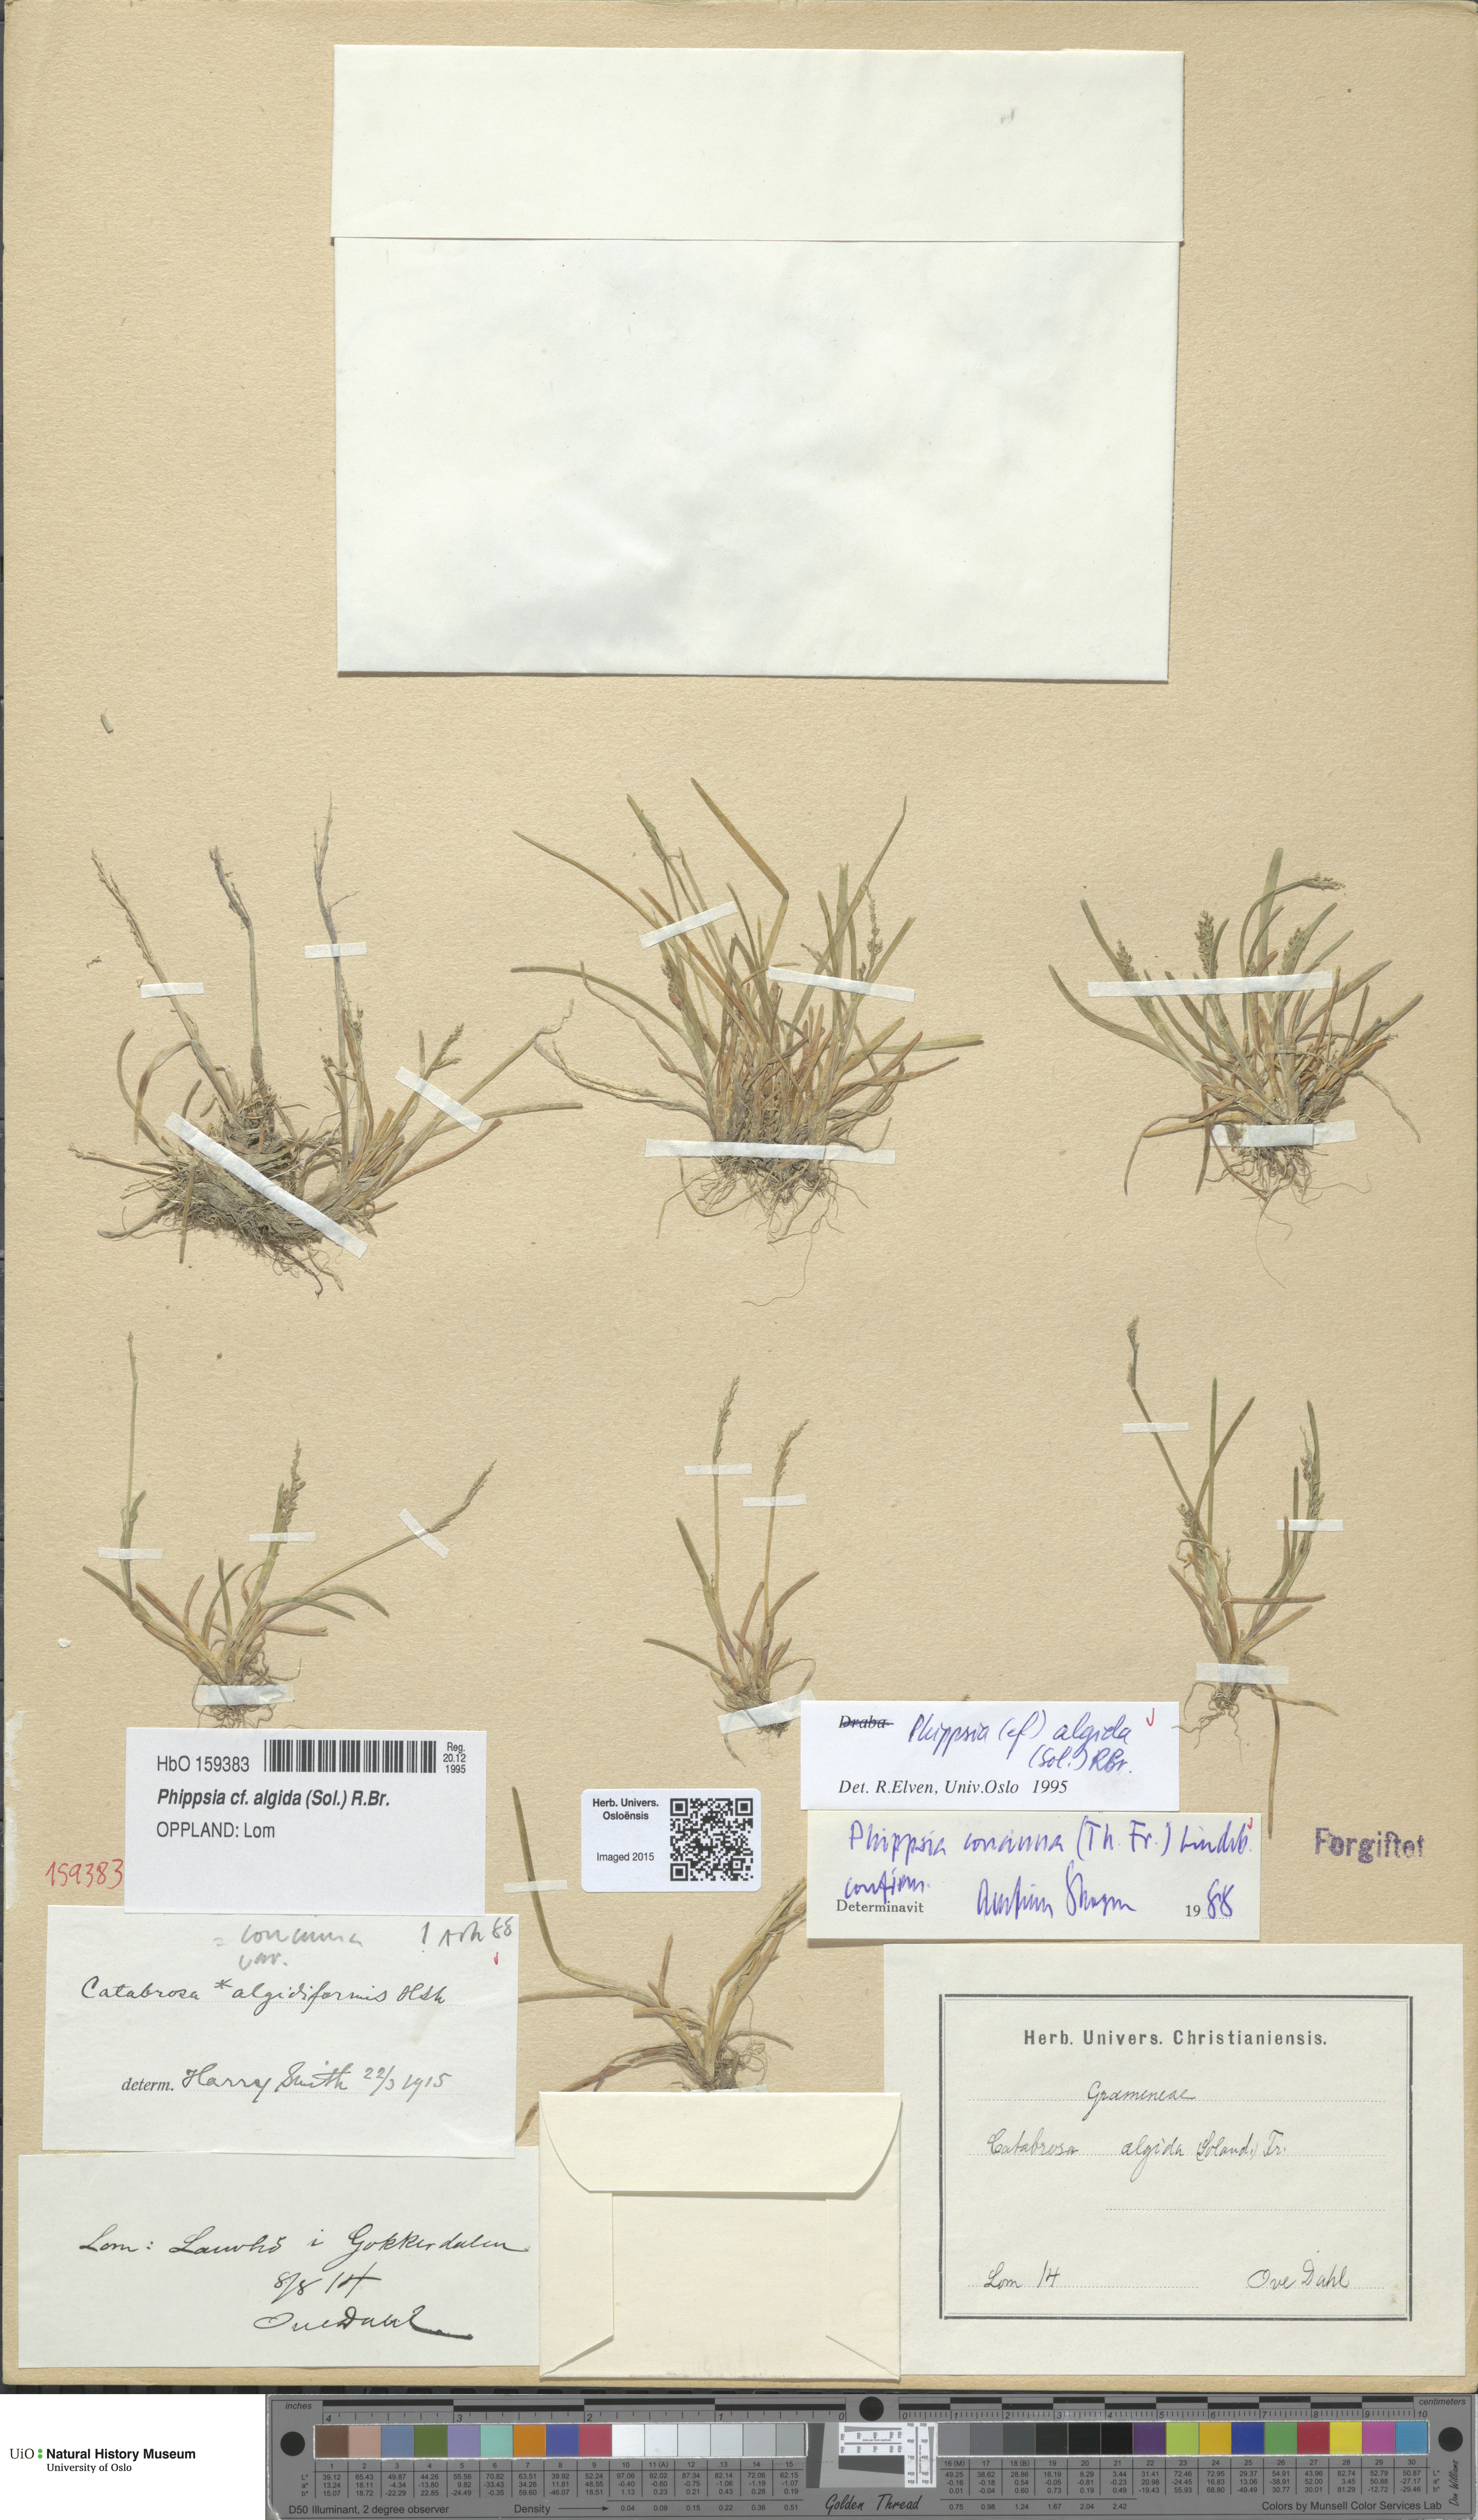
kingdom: Plantae
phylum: Tracheophyta
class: Liliopsida
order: Poales
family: Poaceae
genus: Phippsia
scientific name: Phippsia algida
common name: Ice grass
